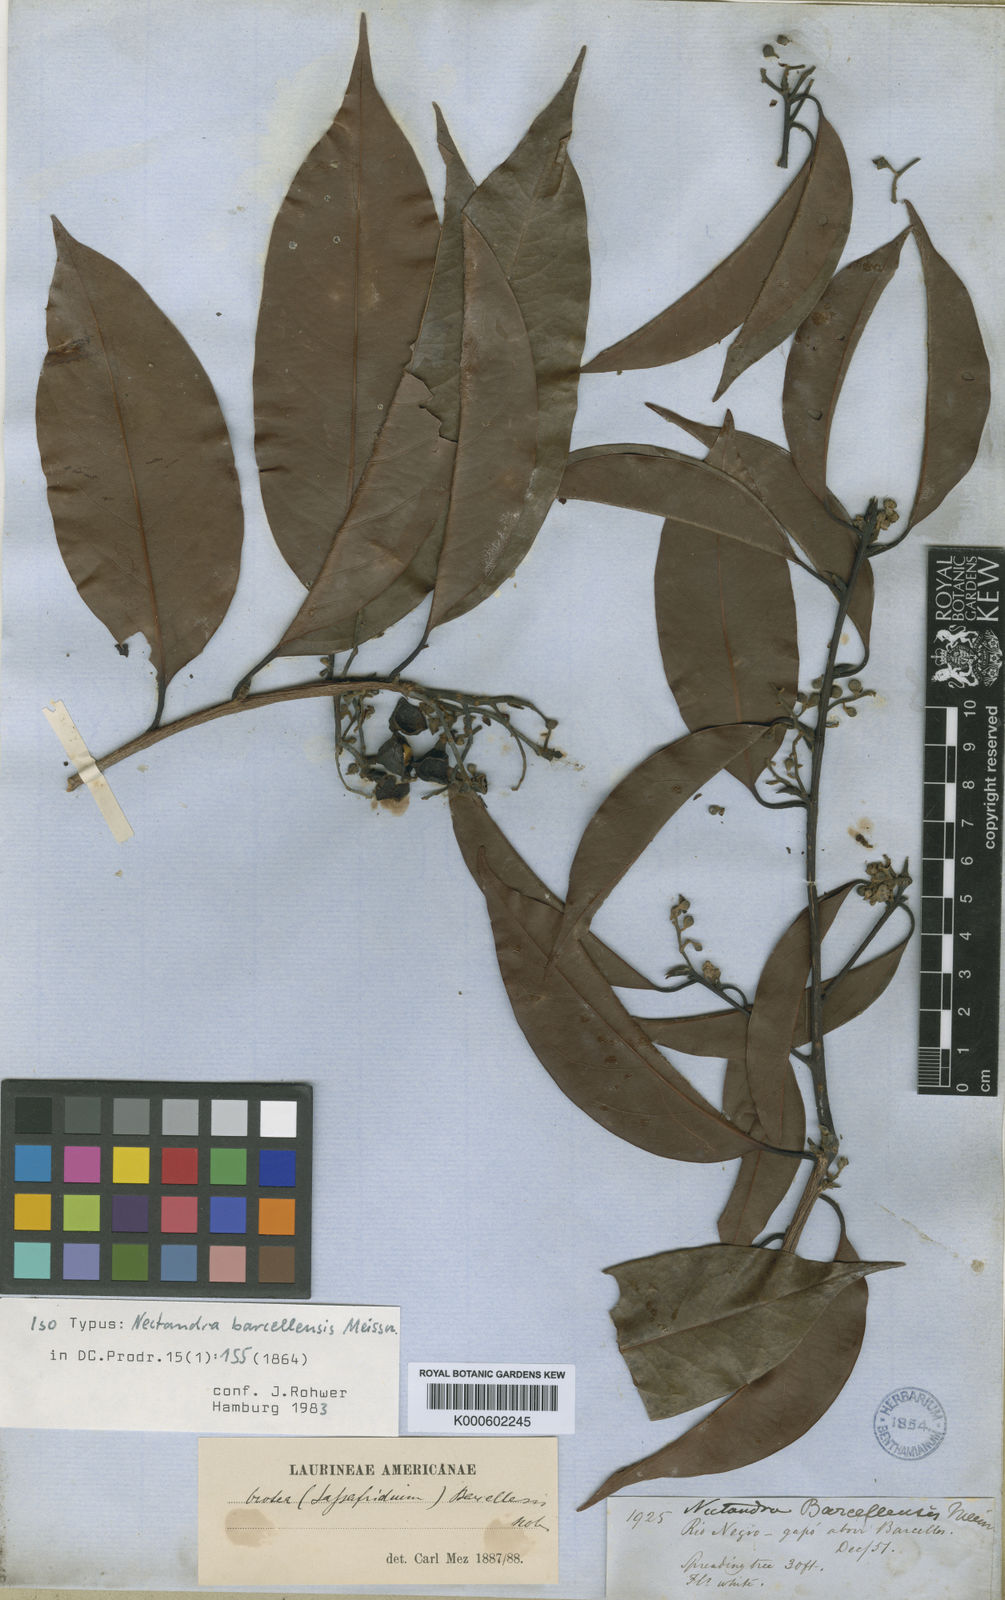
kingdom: Plantae
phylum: Tracheophyta
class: Magnoliopsida
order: Laurales
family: Lauraceae
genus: Mespilodaphne
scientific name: Mespilodaphne cymbarum
